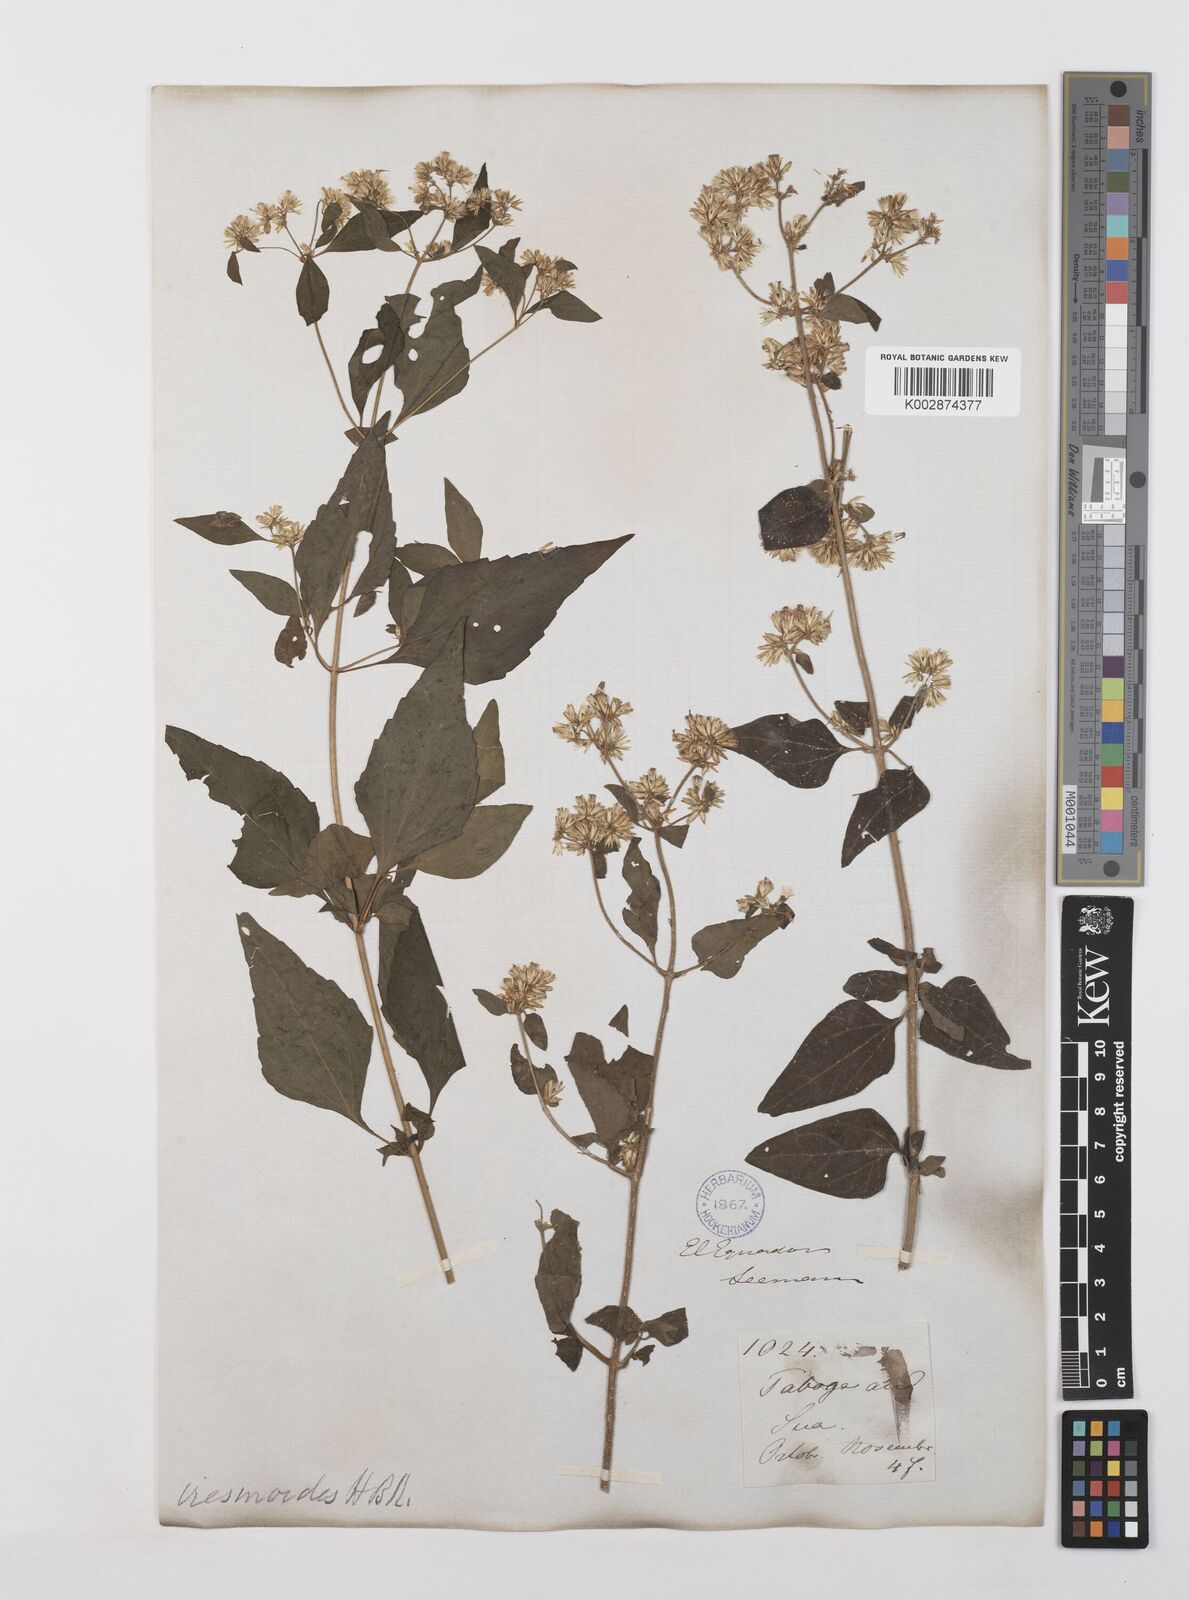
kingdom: Plantae
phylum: Tracheophyta
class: Magnoliopsida
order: Asterales
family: Asteraceae
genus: Condylidium
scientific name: Condylidium iresinoides
